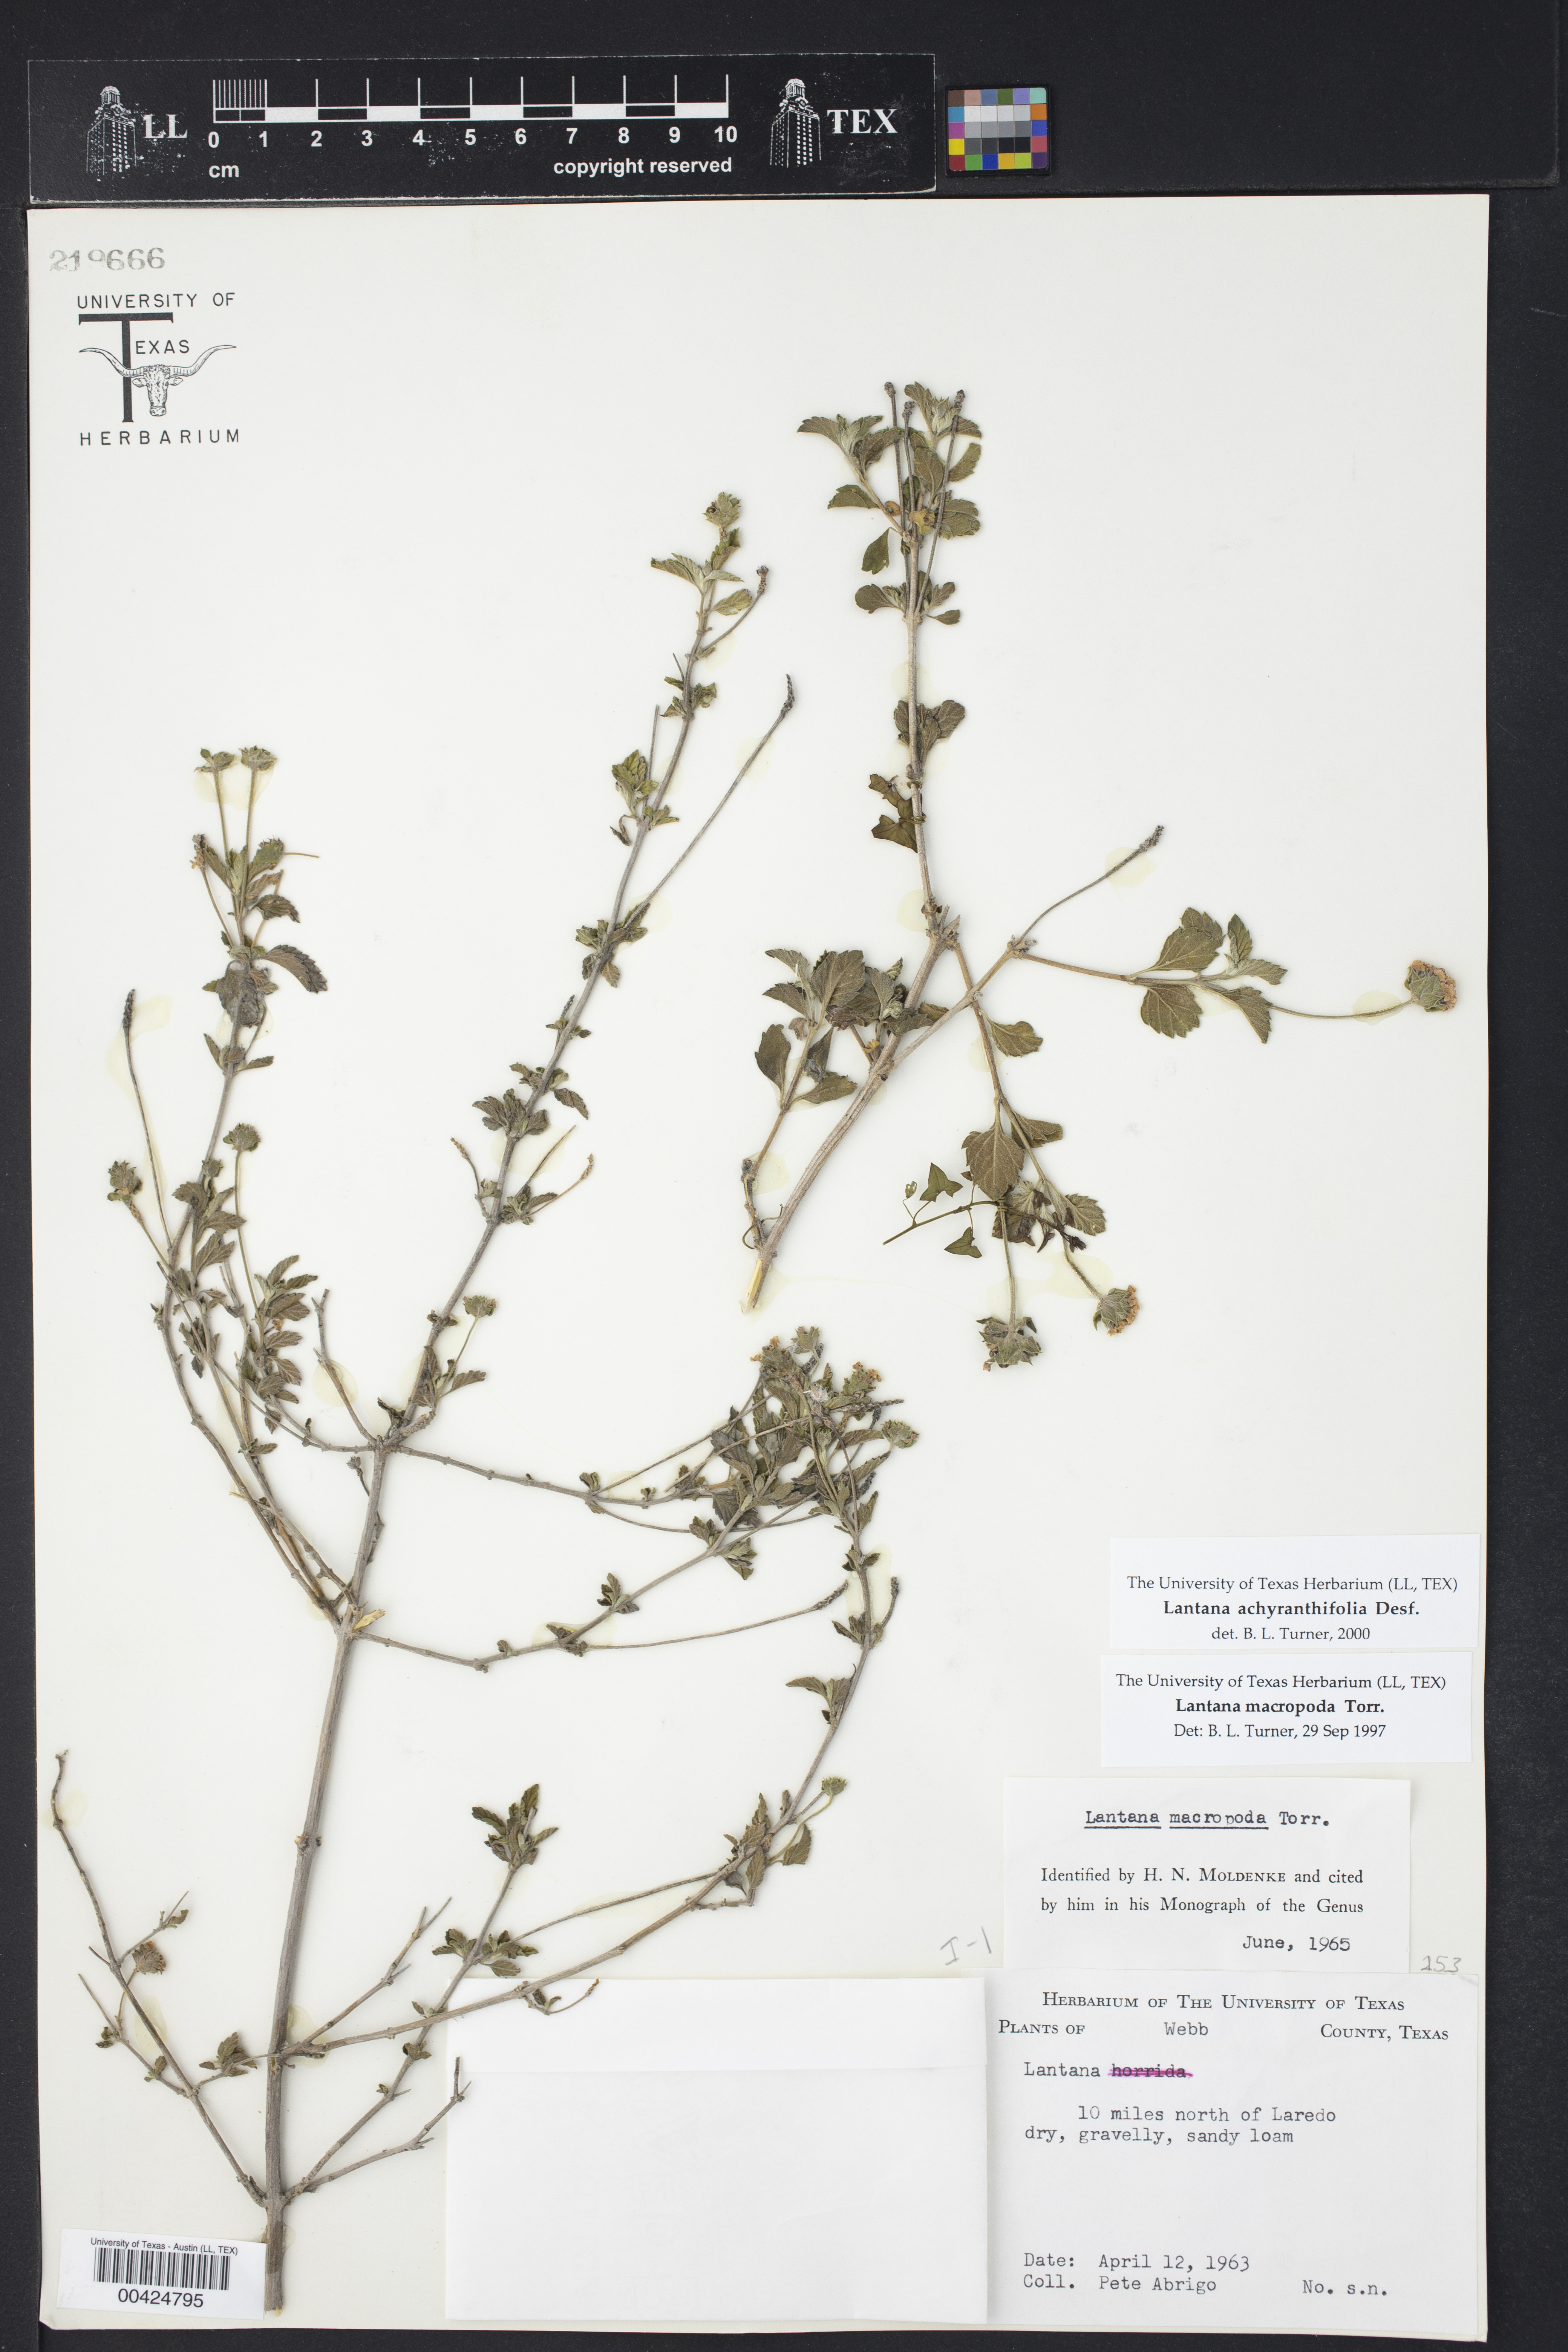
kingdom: Plantae
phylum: Tracheophyta
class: Magnoliopsida
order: Lamiales
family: Verbenaceae
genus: Lantana
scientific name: Lantana achyranthifolia
